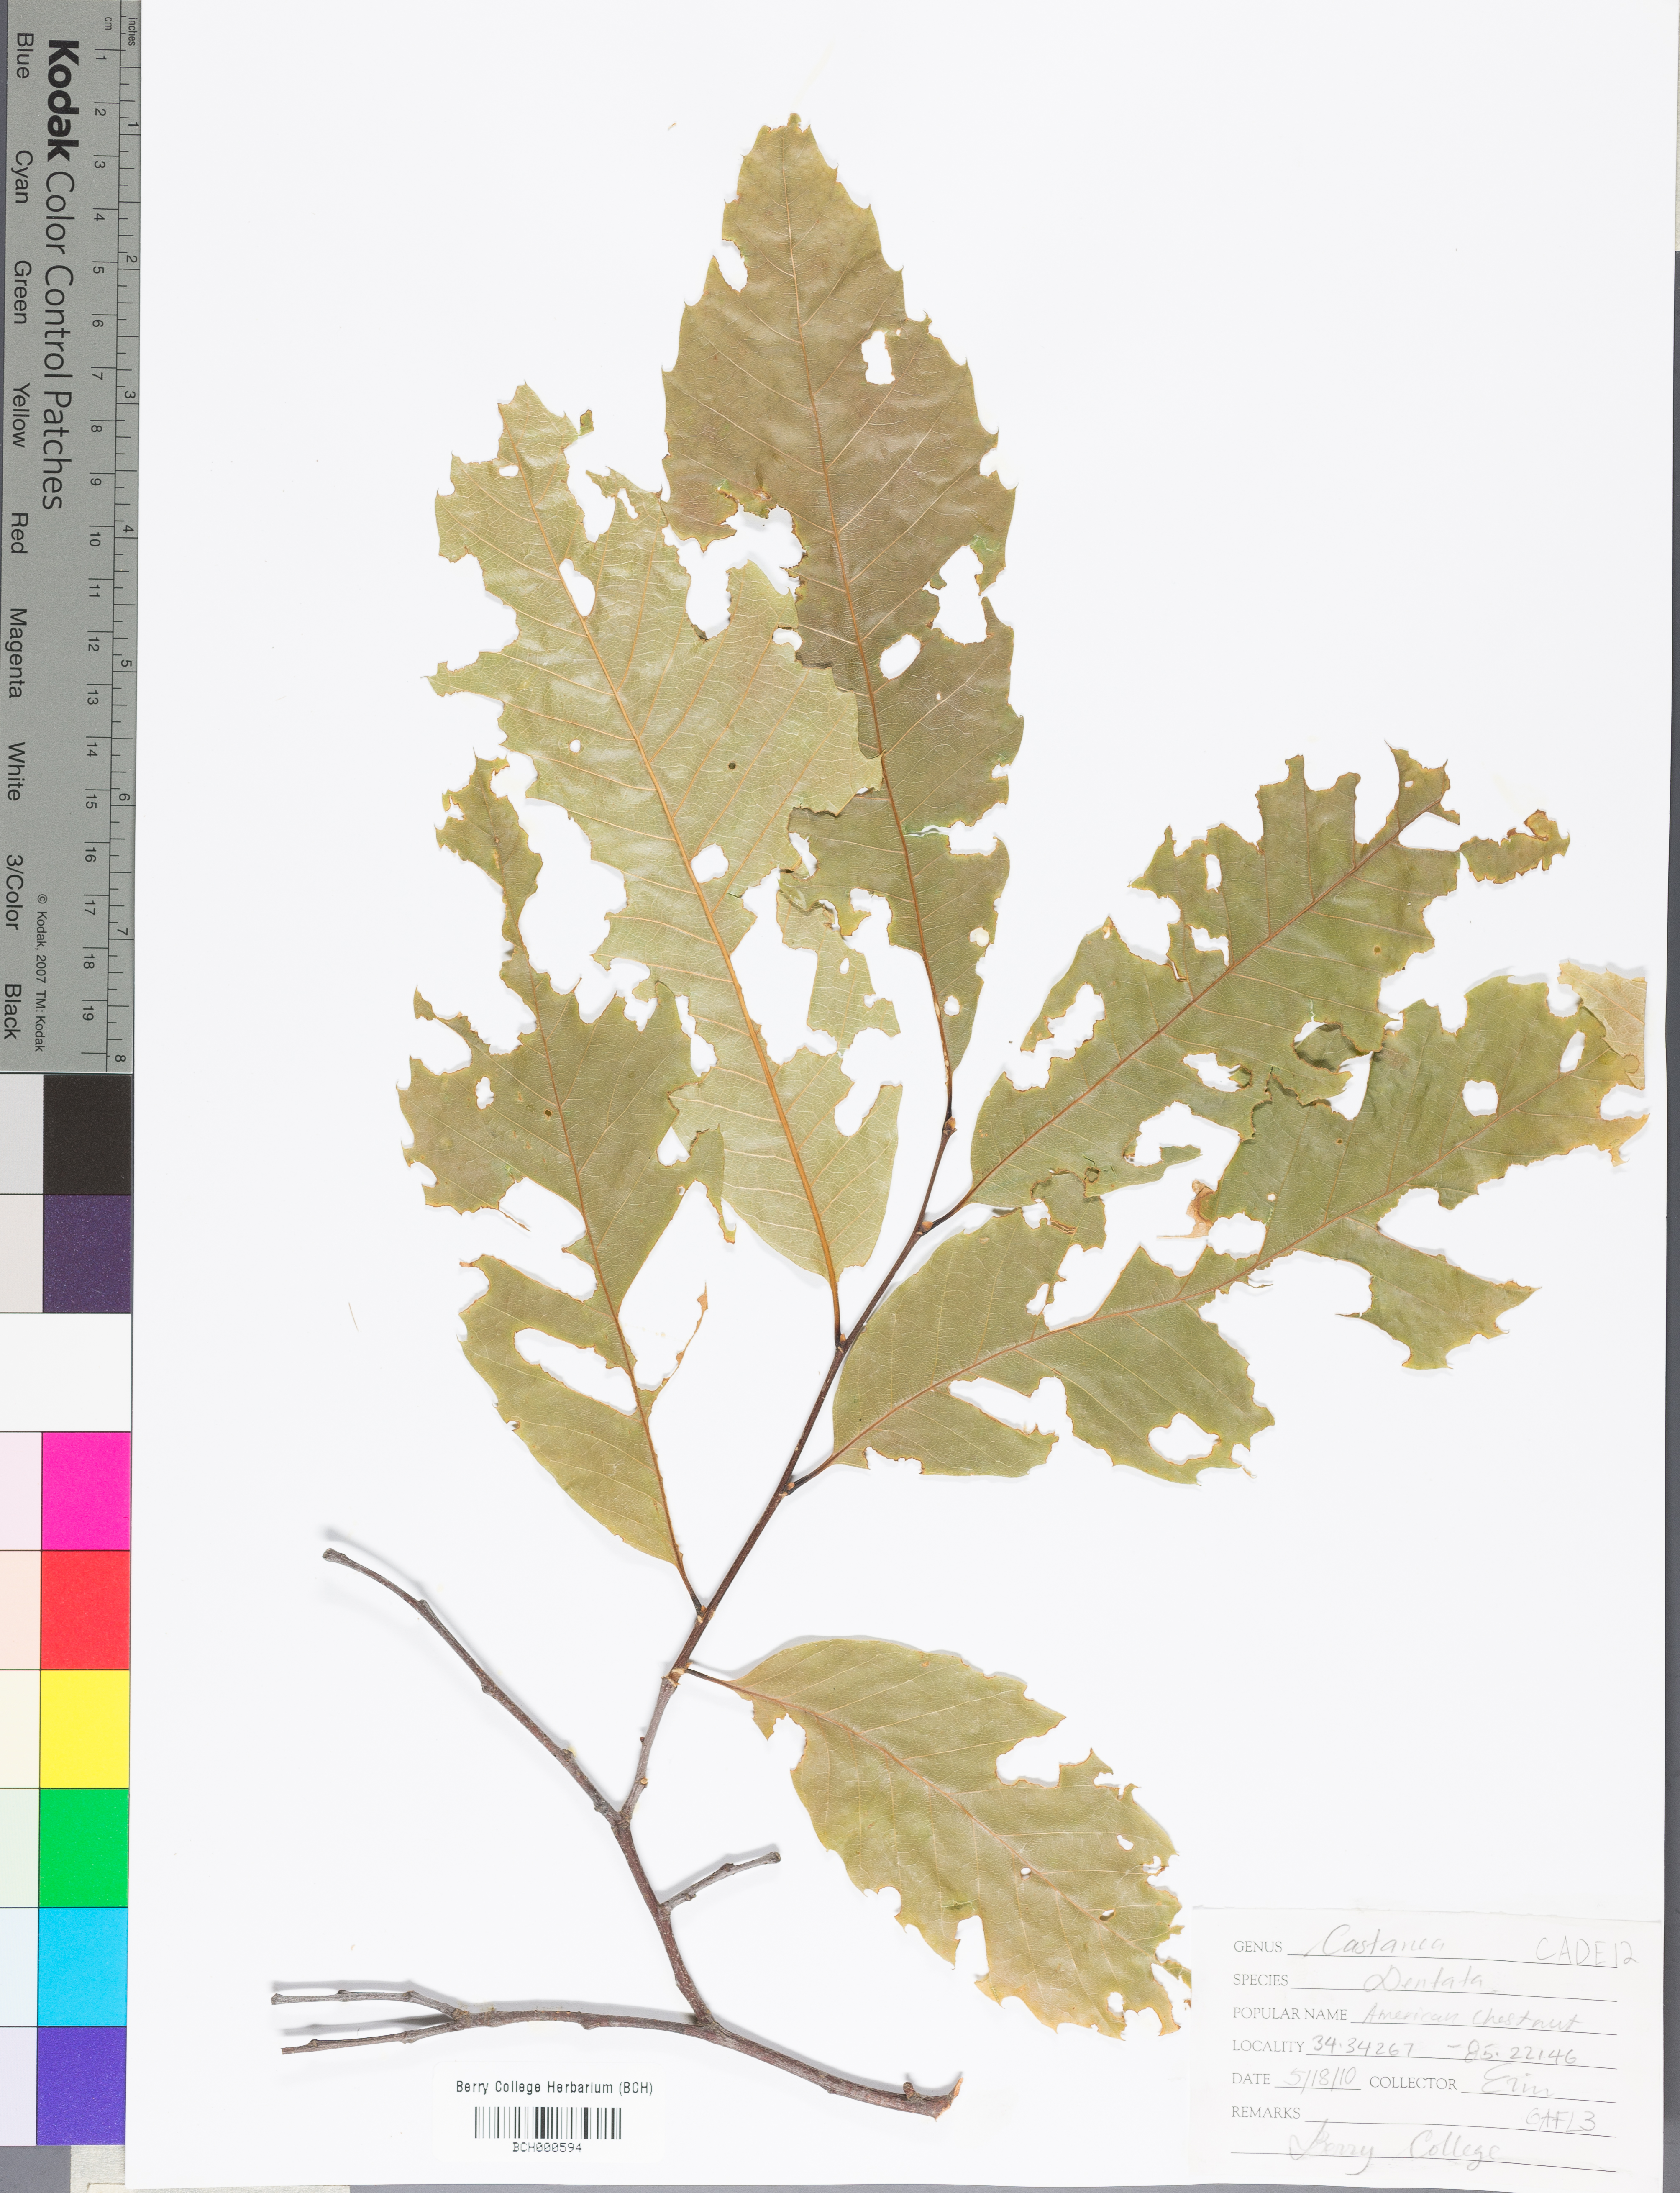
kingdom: Plantae
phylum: Tracheophyta
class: Magnoliopsida
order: Fagales
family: Fagaceae
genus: Castanea
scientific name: Castanea dentata
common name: American chestnut
